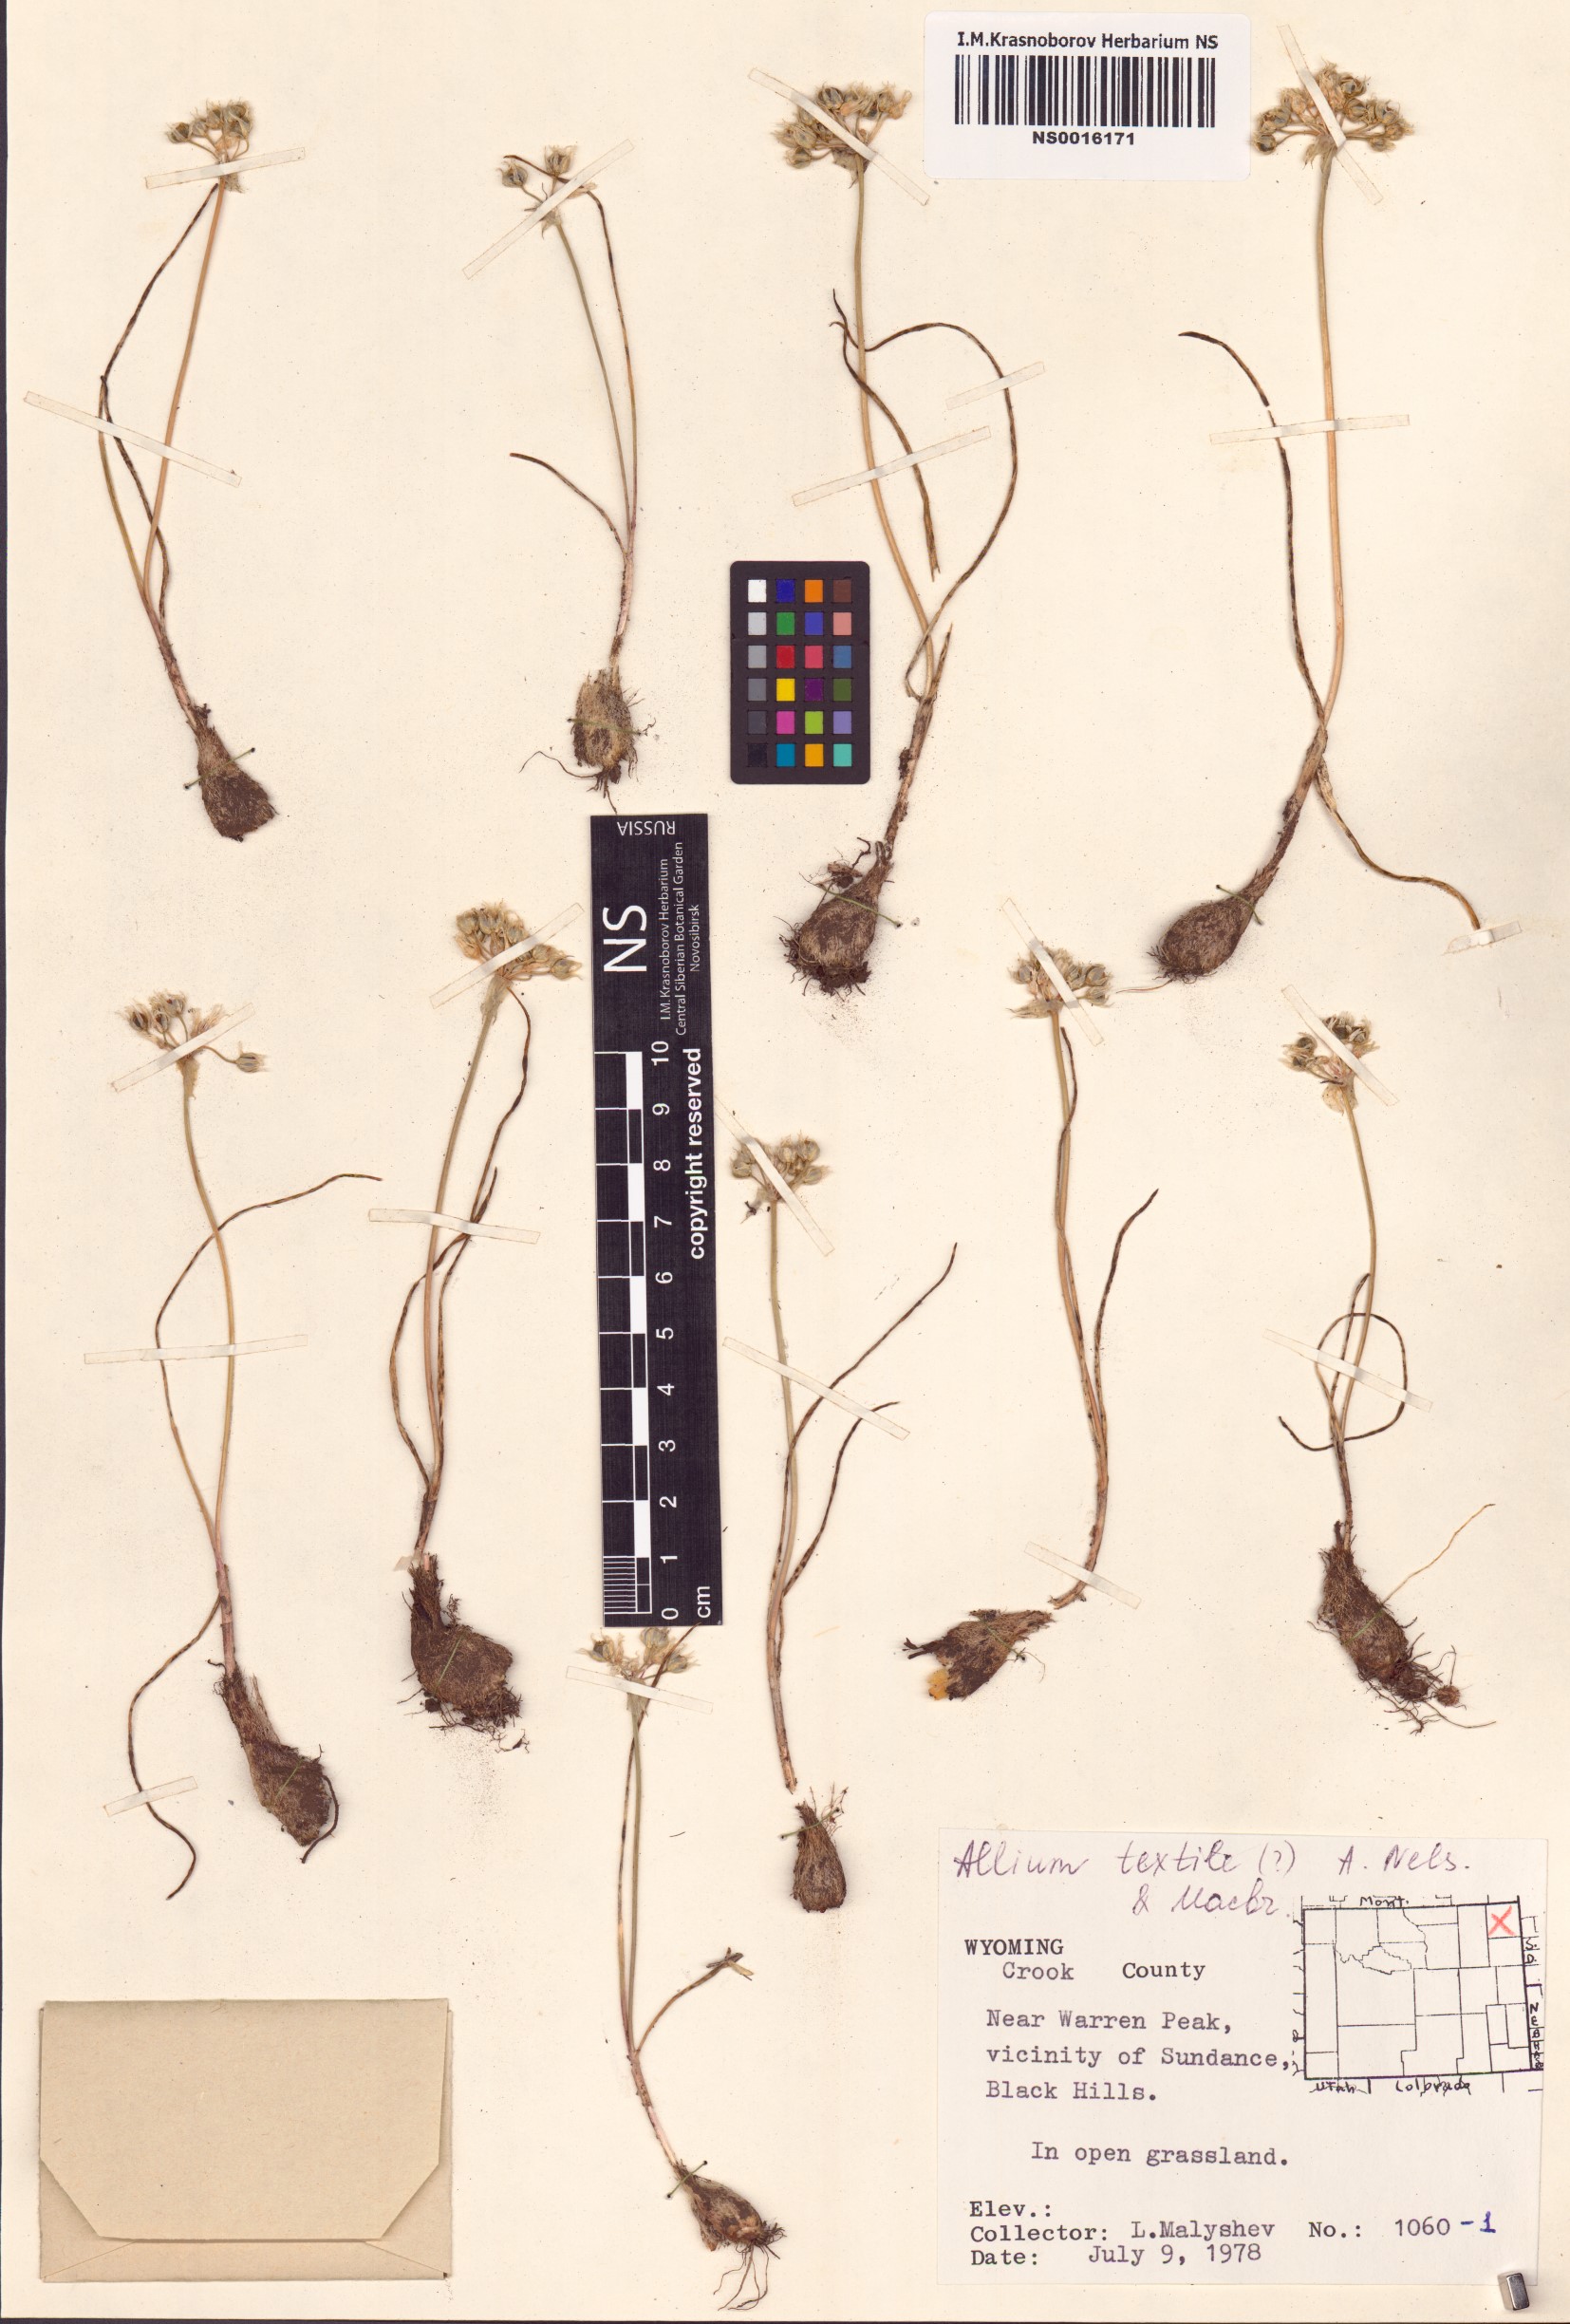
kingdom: Plantae
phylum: Tracheophyta
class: Liliopsida
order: Asparagales
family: Amaryllidaceae
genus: Allium
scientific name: Allium textile
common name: Prairie onion
